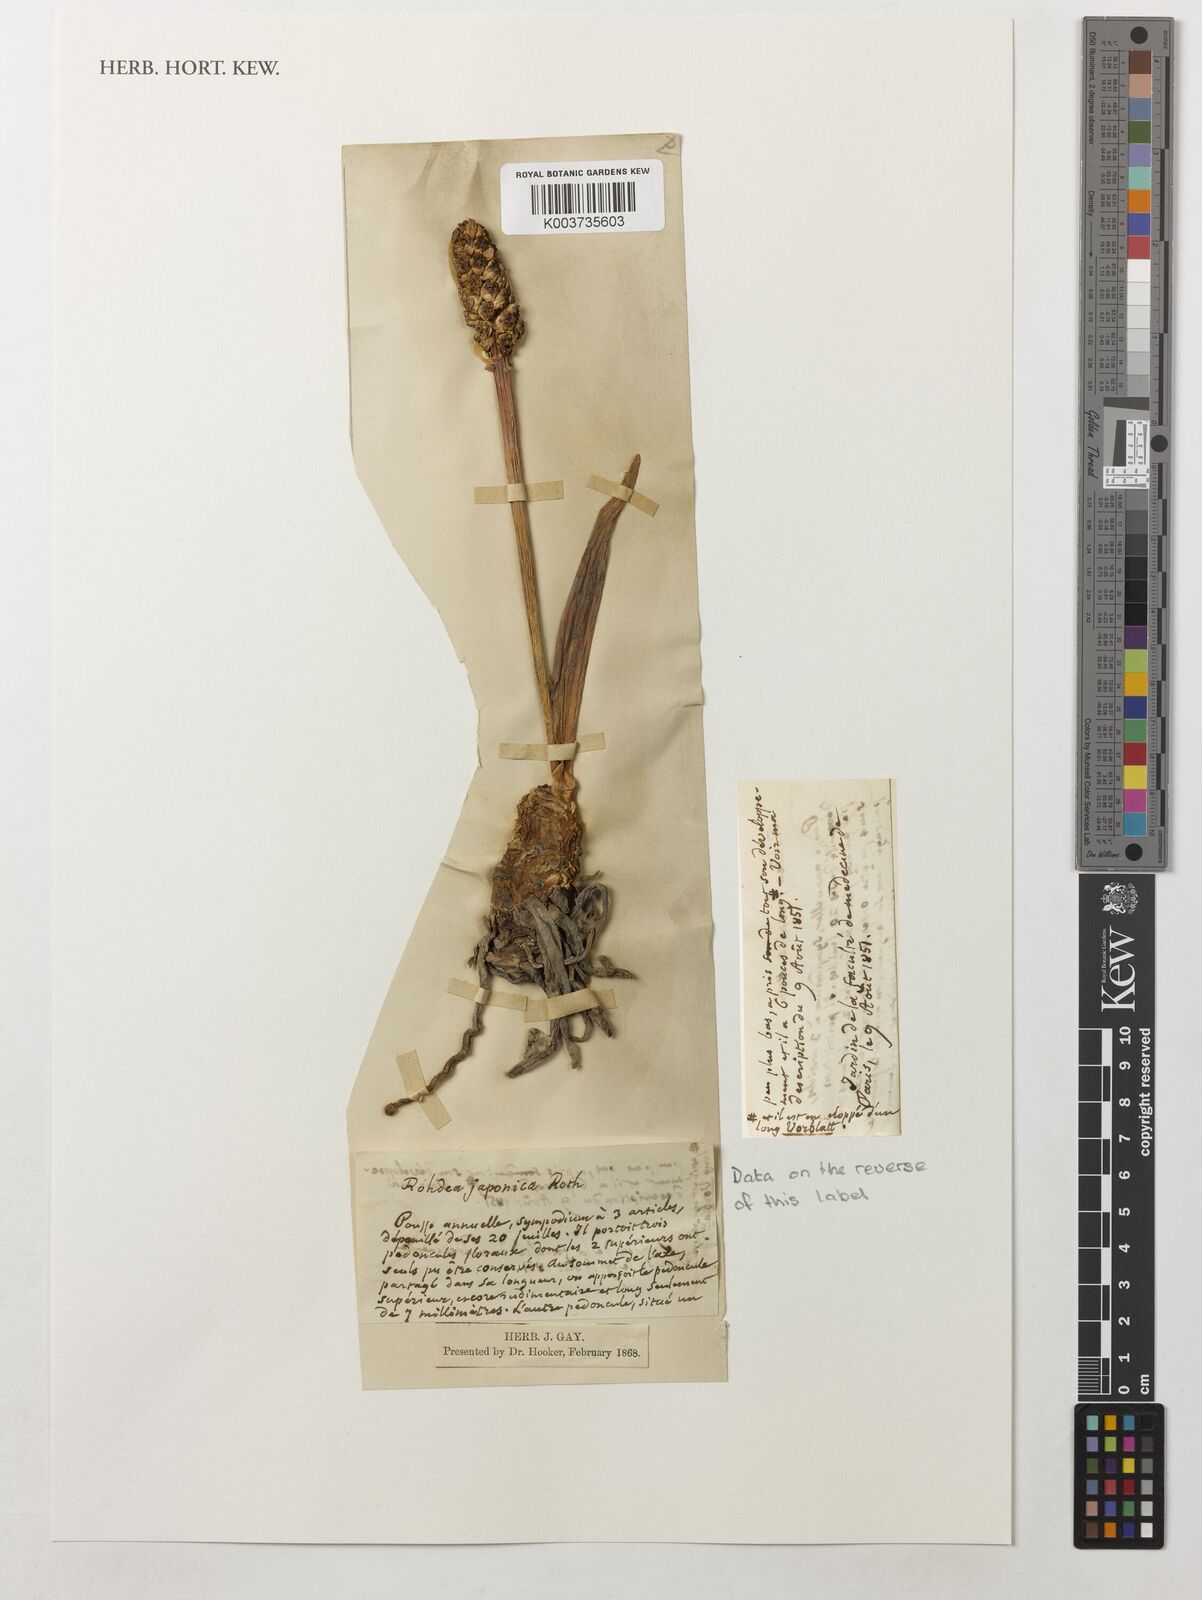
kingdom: Plantae
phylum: Tracheophyta
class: Liliopsida
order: Asparagales
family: Asparagaceae
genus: Rohdea
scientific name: Rohdea japonica
